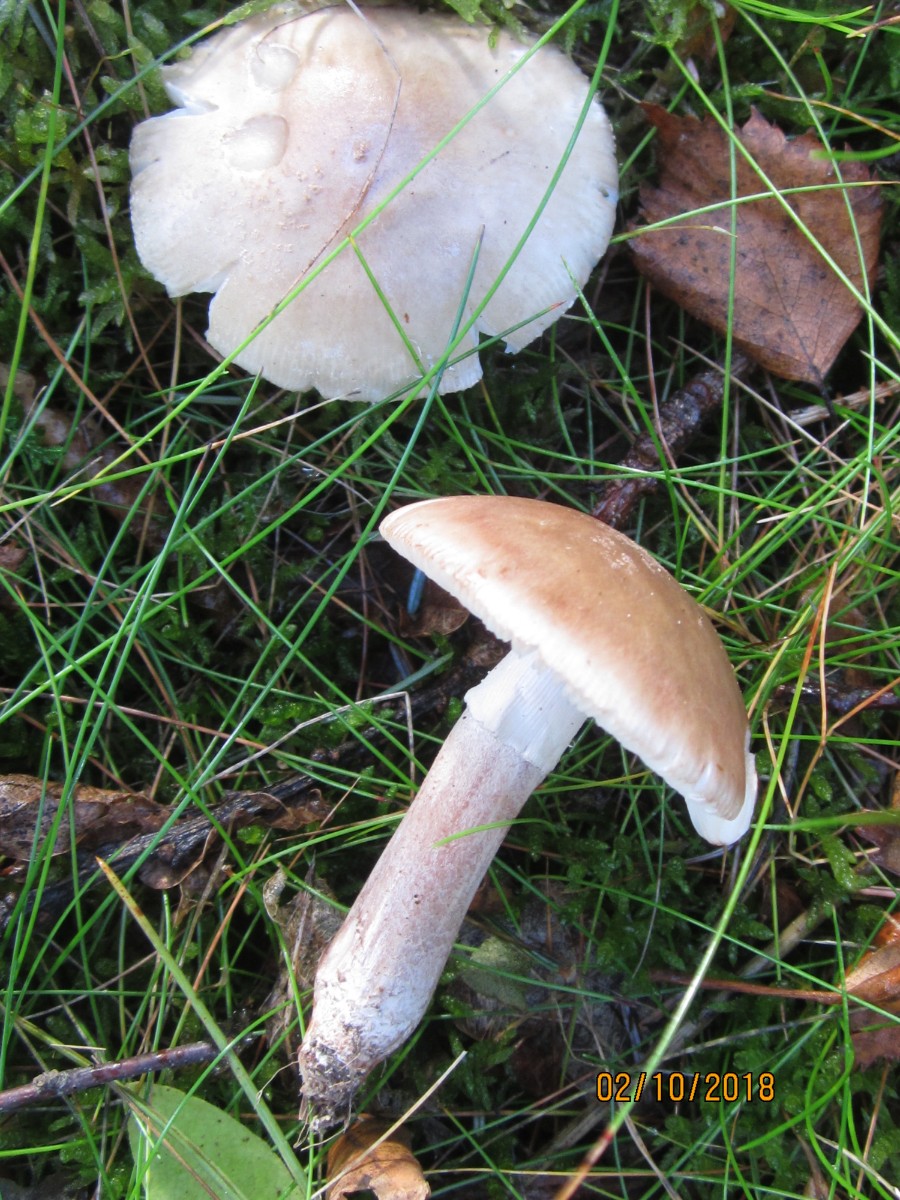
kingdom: Fungi
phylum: Basidiomycota
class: Agaricomycetes
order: Agaricales
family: Amanitaceae
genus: Amanita
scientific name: Amanita rubescens
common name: rødmende fluesvamp
